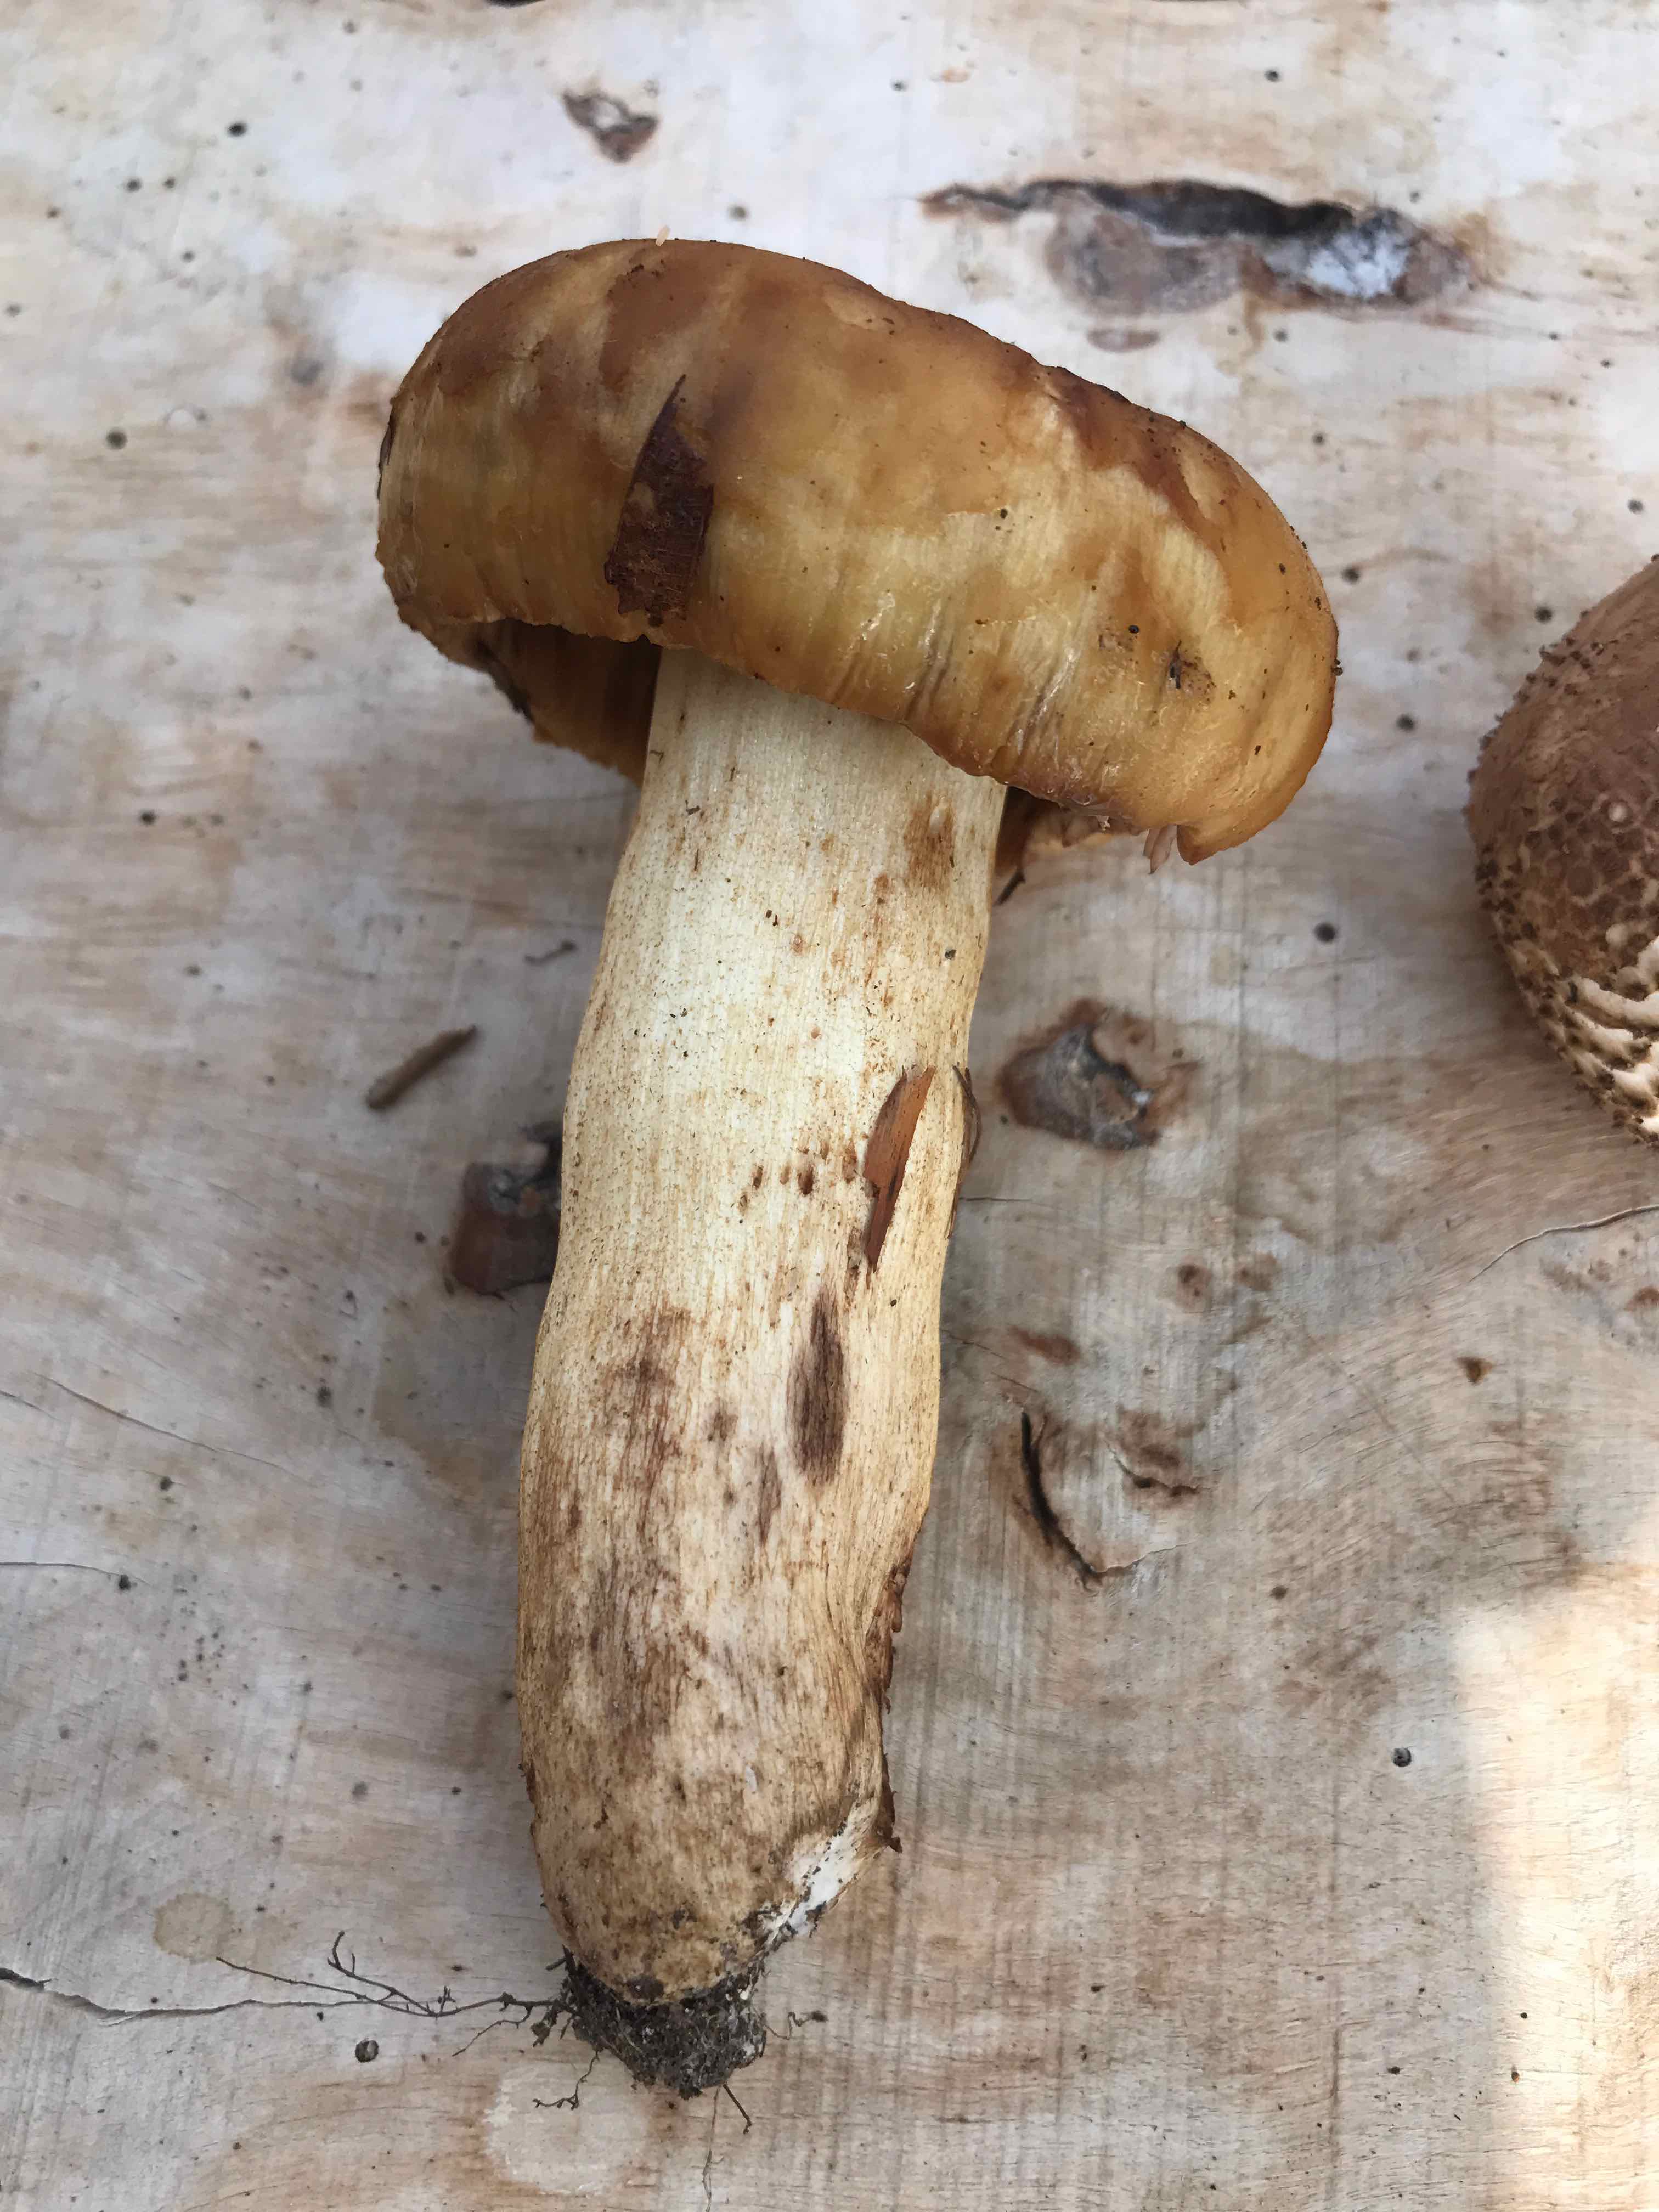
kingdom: Fungi
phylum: Basidiomycota
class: Agaricomycetes
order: Russulales
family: Russulaceae
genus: Russula
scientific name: Russula foetens
